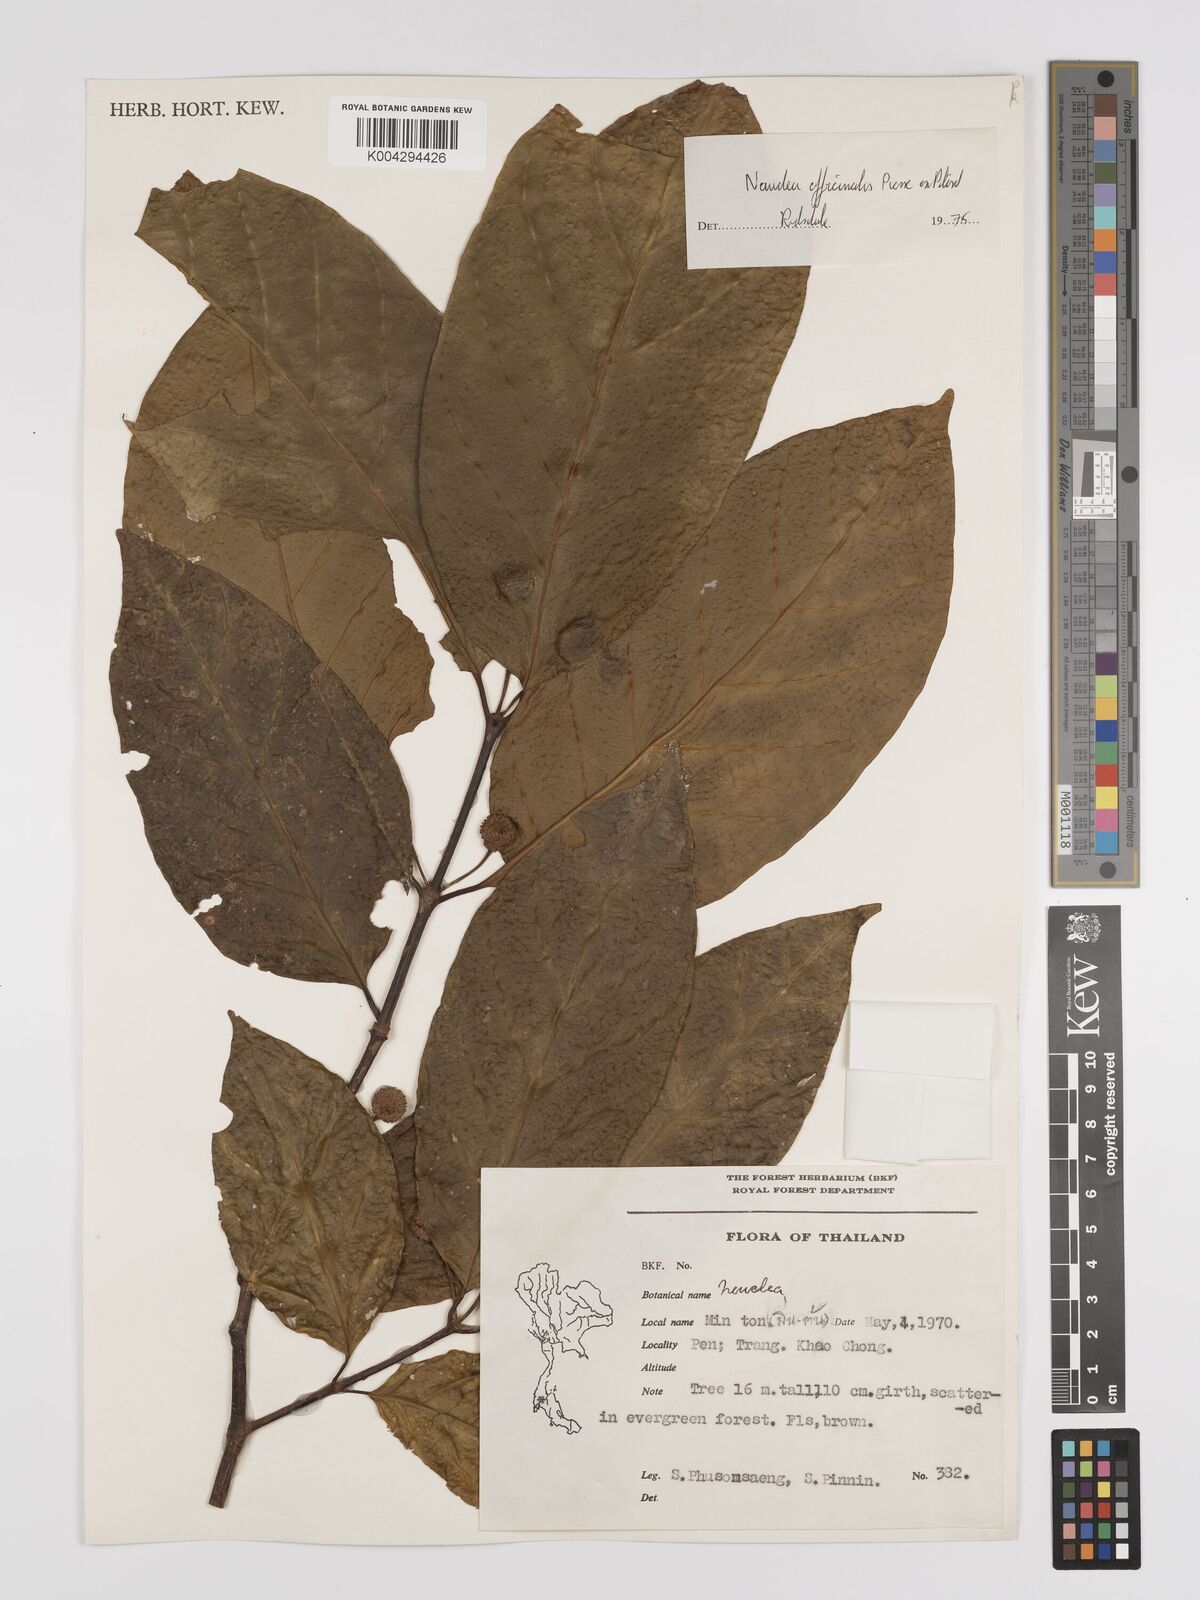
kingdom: Plantae
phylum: Tracheophyta
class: Magnoliopsida
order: Gentianales
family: Rubiaceae
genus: Nauclea
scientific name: Nauclea officinalis
